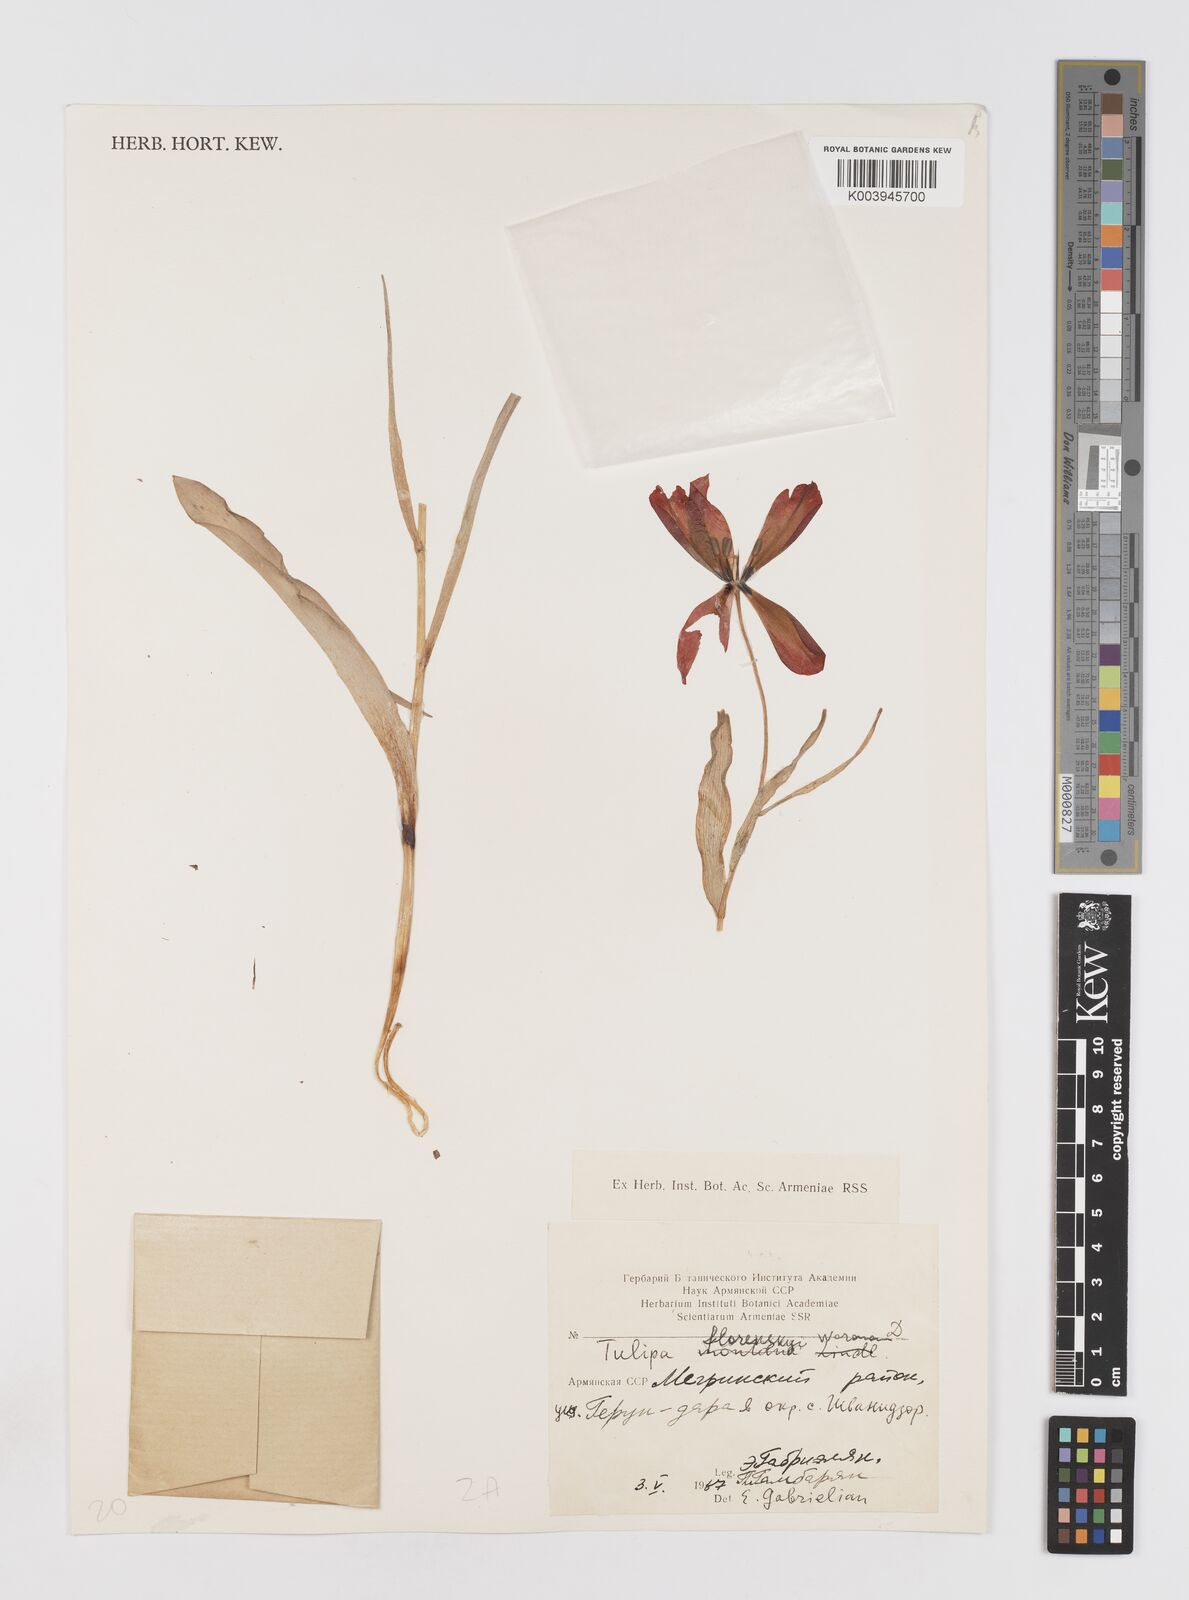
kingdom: Plantae
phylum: Tracheophyta
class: Liliopsida
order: Liliales
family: Liliaceae
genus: Tulipa
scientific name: Tulipa armena
